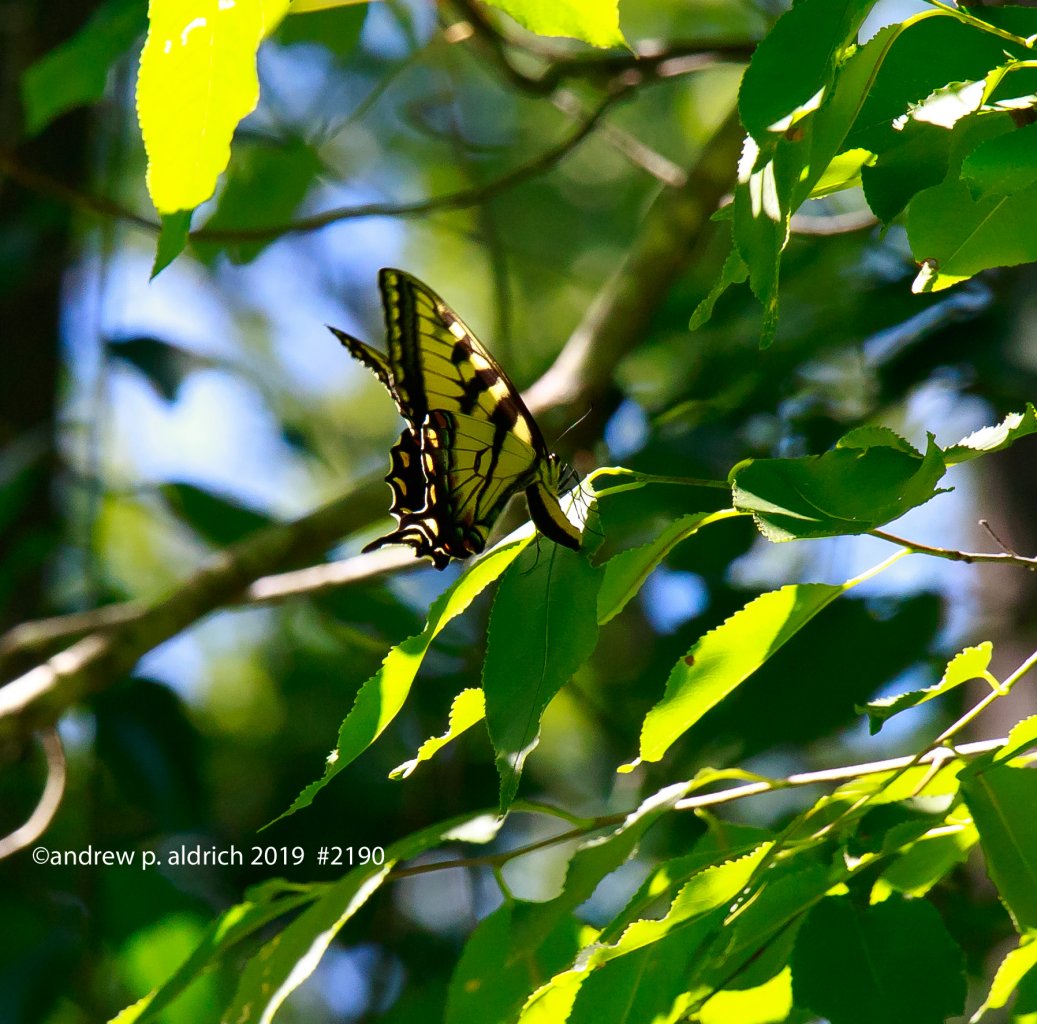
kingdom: Animalia
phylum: Arthropoda
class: Insecta
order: Lepidoptera
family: Papilionidae
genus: Pterourus
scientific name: Pterourus glaucus
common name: Eastern Tiger Swallowtail
